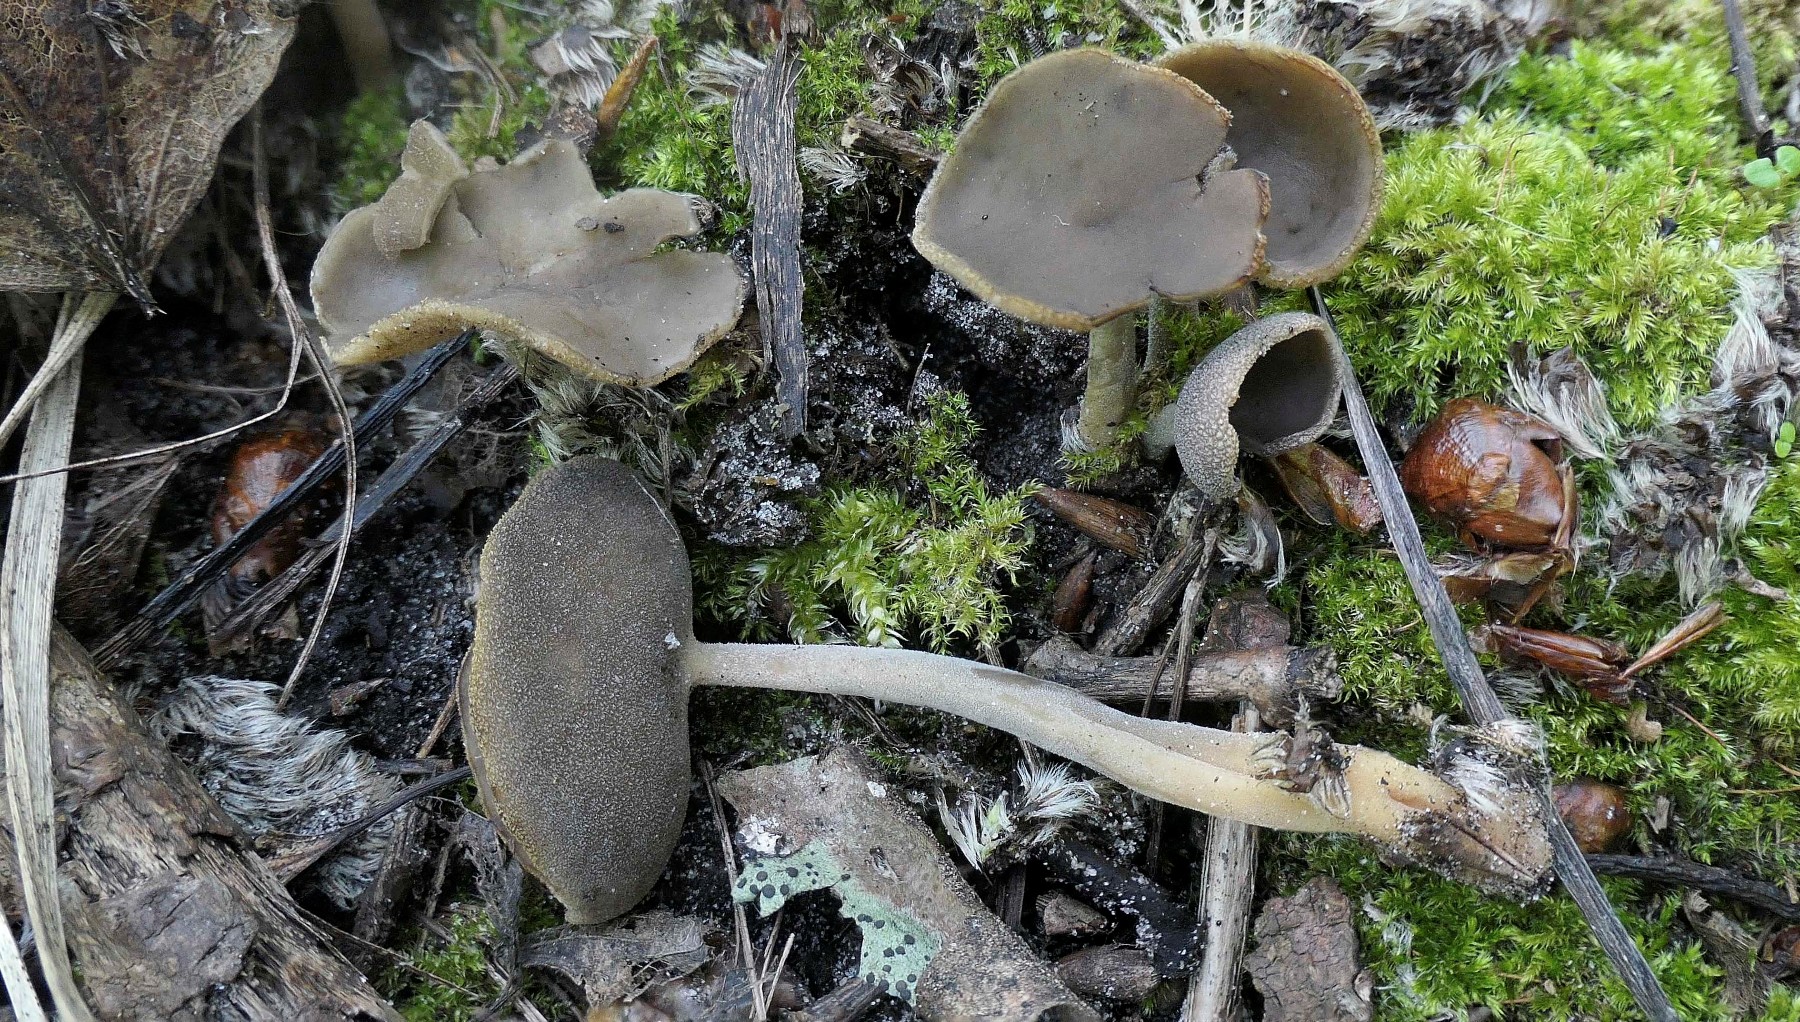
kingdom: Fungi
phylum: Ascomycota
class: Pezizomycetes
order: Pezizales
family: Helvellaceae
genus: Helvella
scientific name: Helvella fibrosa
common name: dunstokket foldhat
